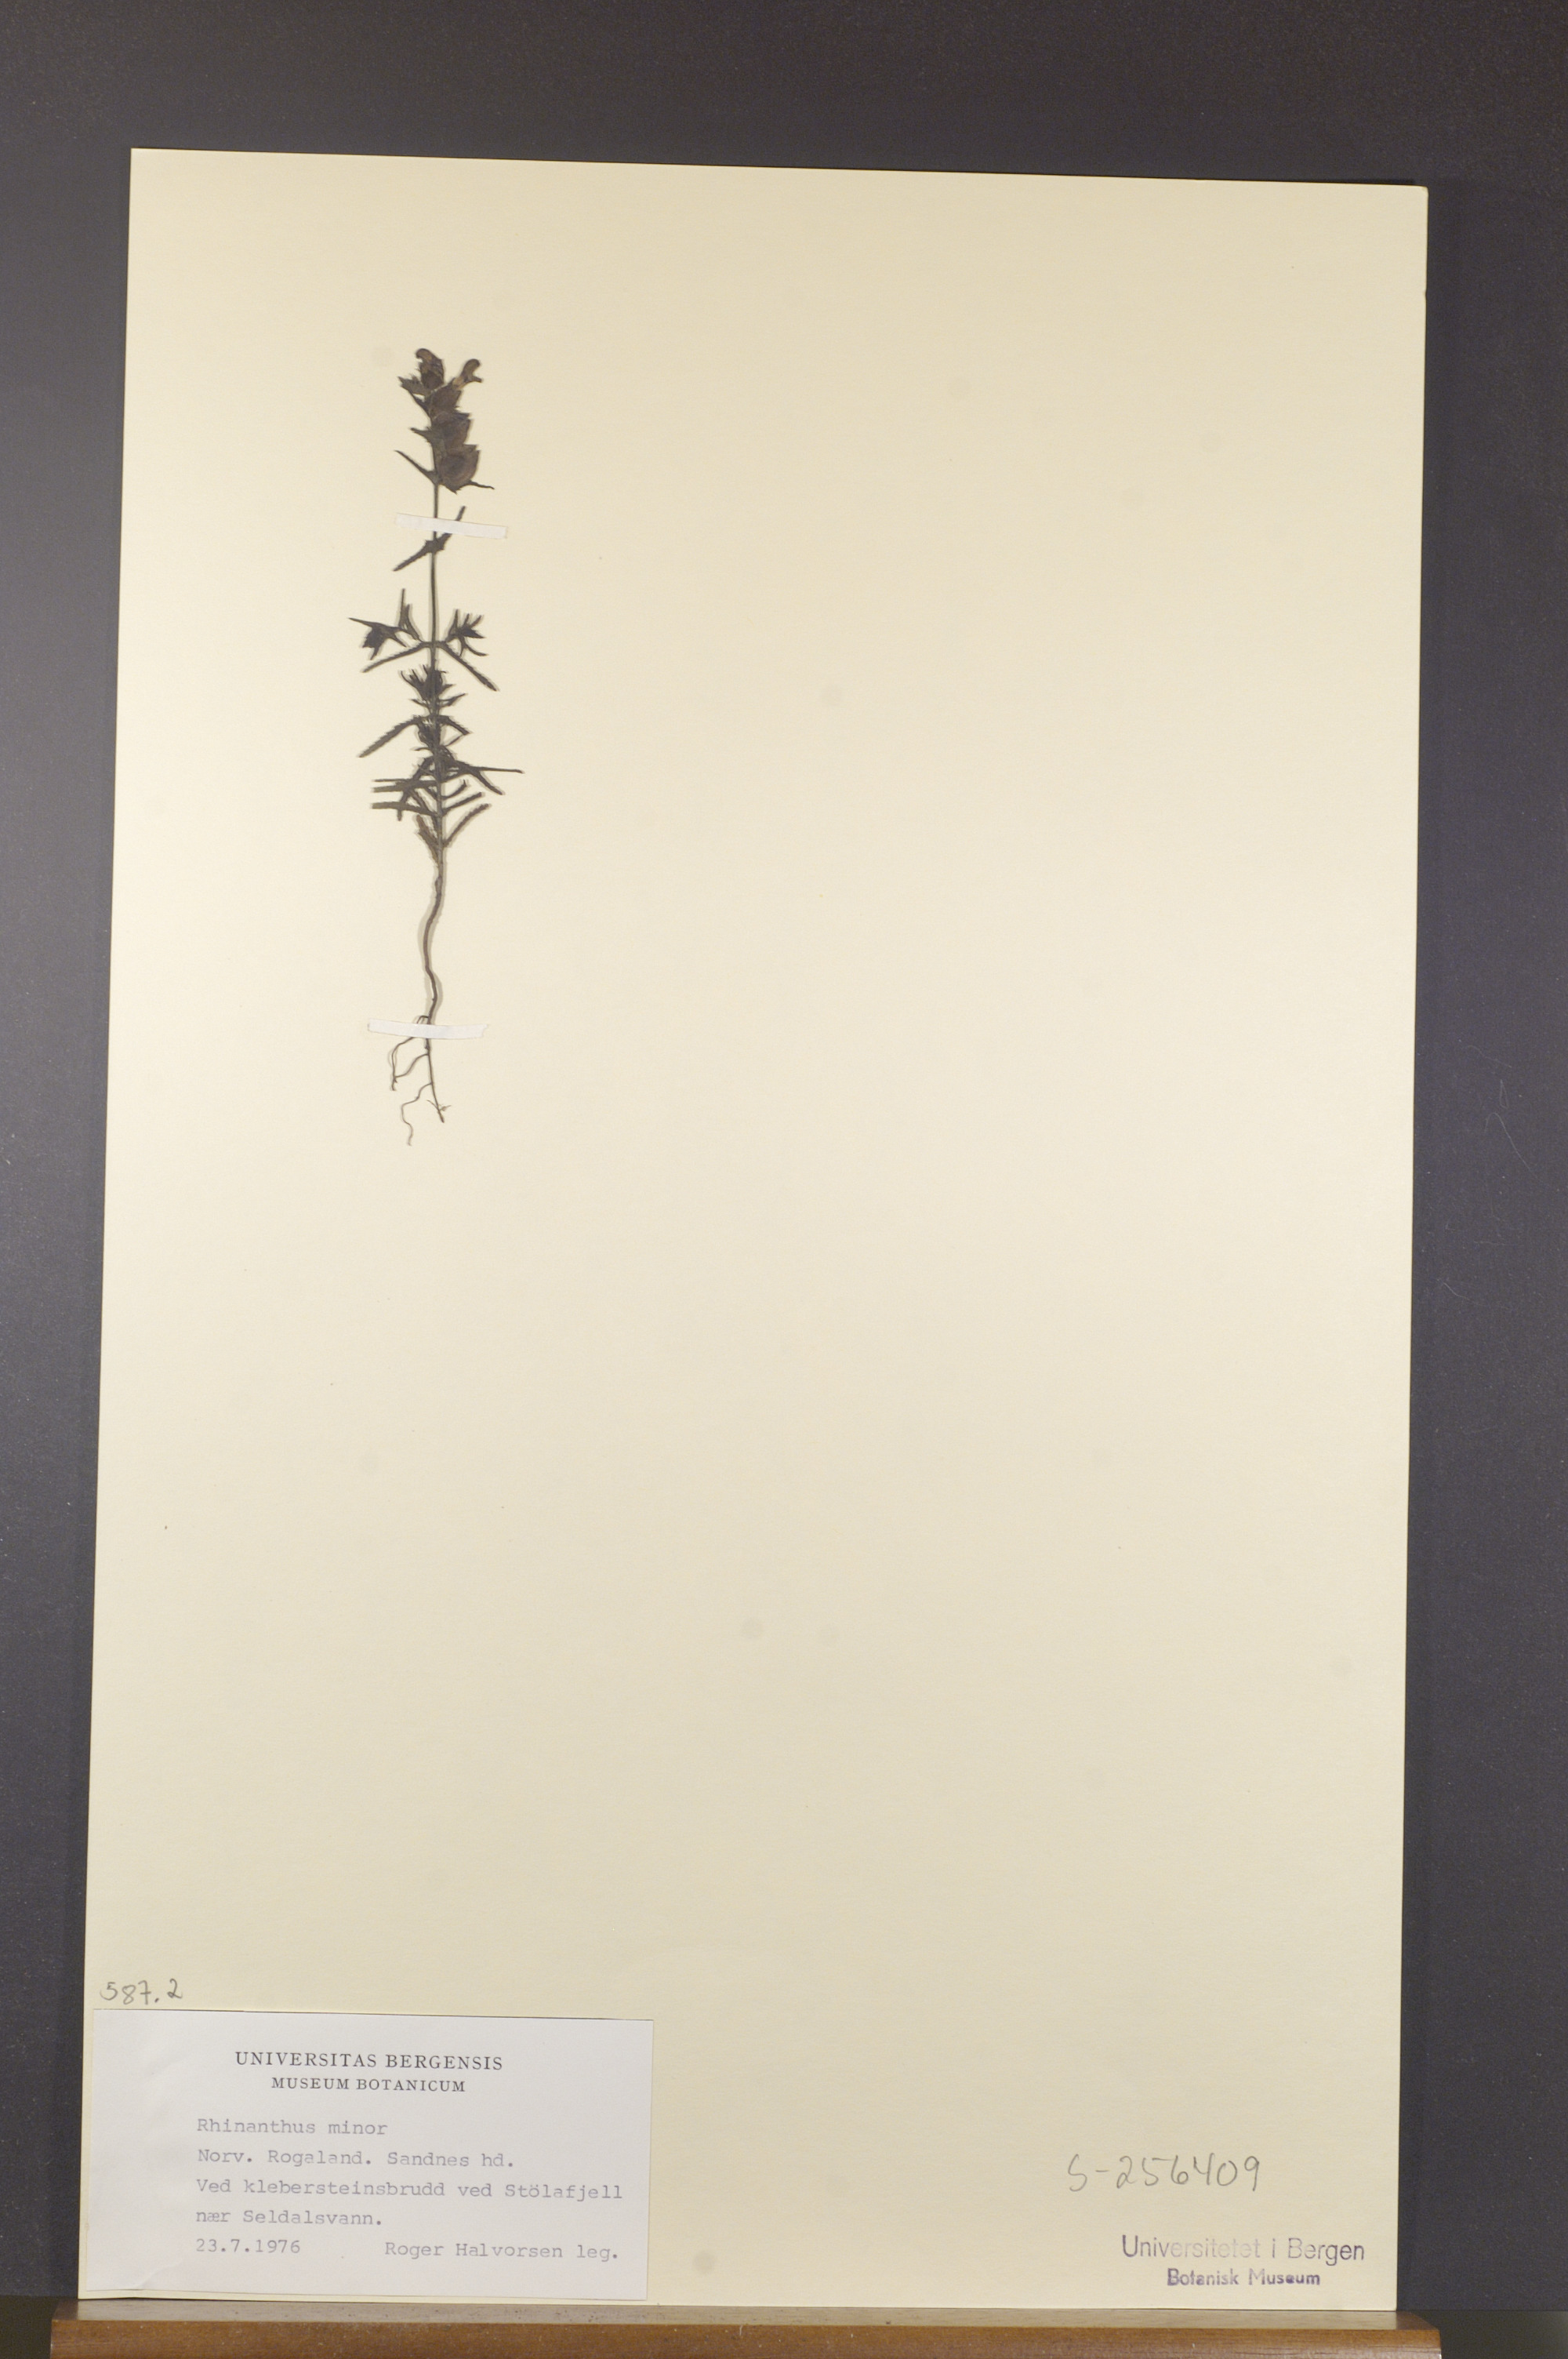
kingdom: Plantae
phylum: Tracheophyta
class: Magnoliopsida
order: Lamiales
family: Orobanchaceae
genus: Rhinanthus
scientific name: Rhinanthus minor
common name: Yellow-rattle
